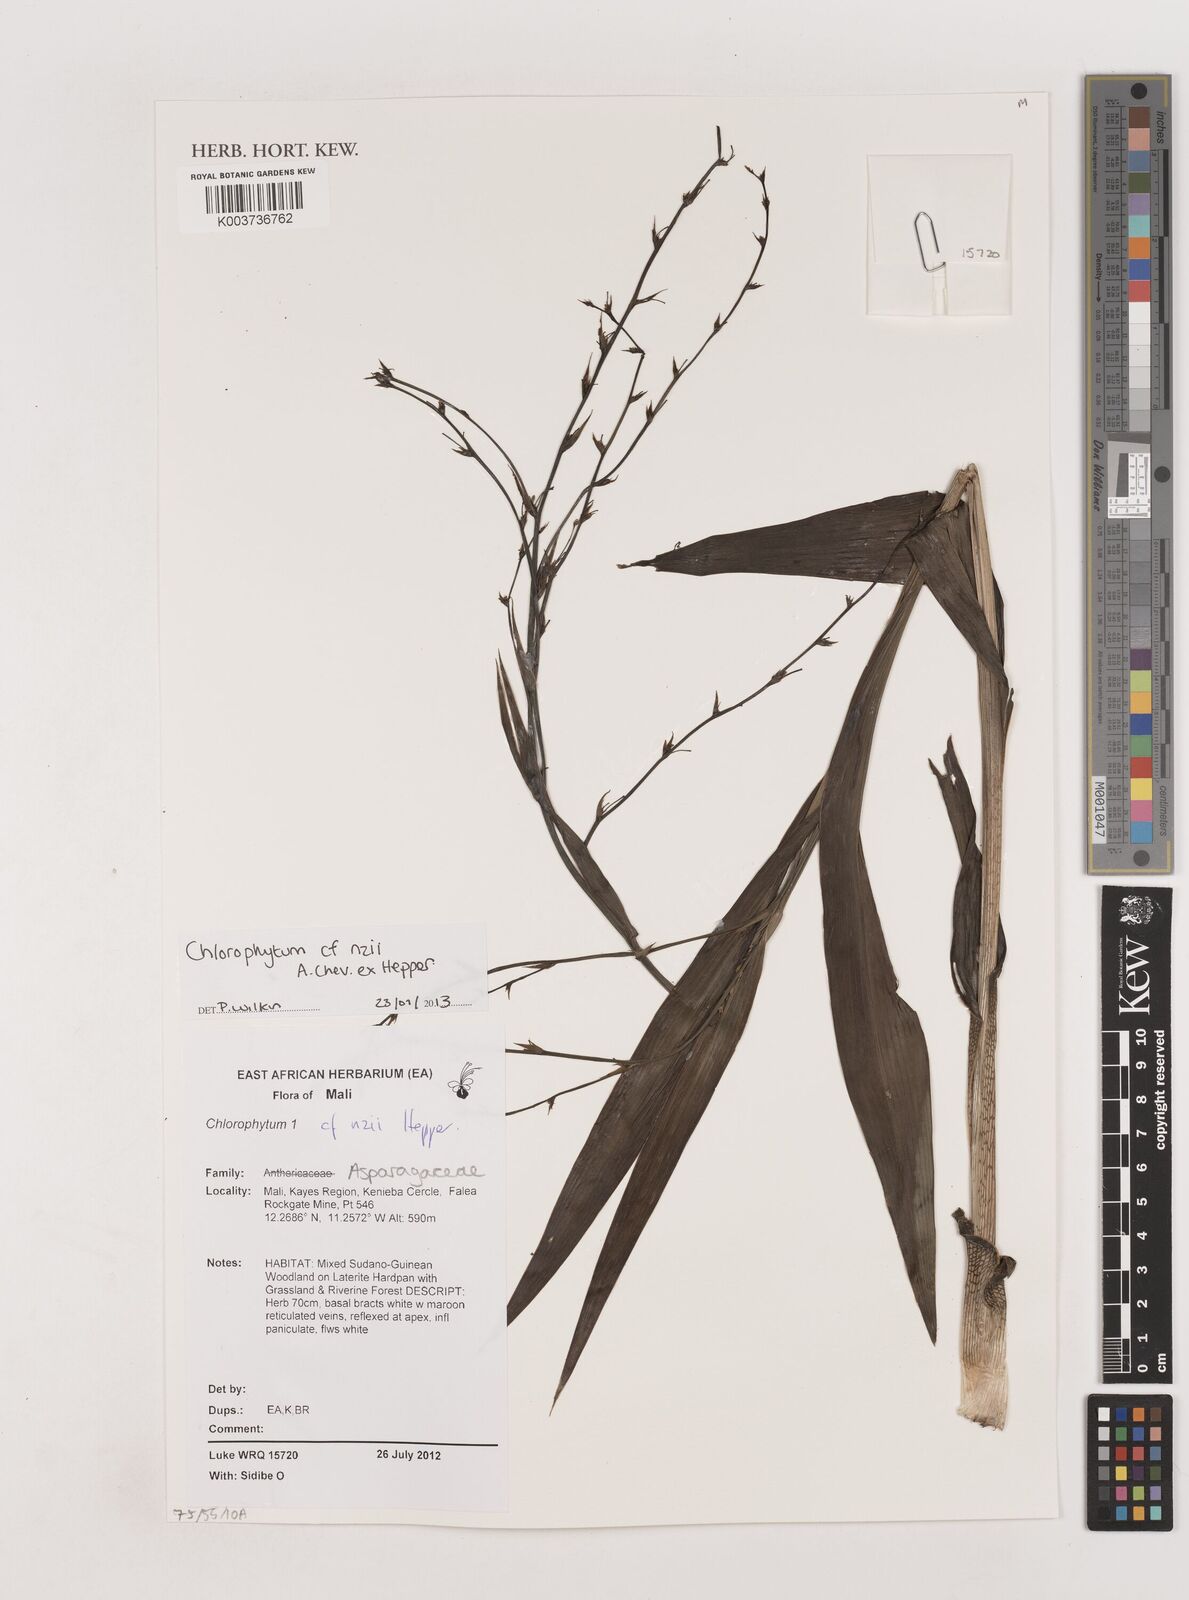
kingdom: Plantae
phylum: Tracheophyta
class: Liliopsida
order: Asparagales
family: Asparagaceae
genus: Chlorophytum
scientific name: Chlorophytum nzii
